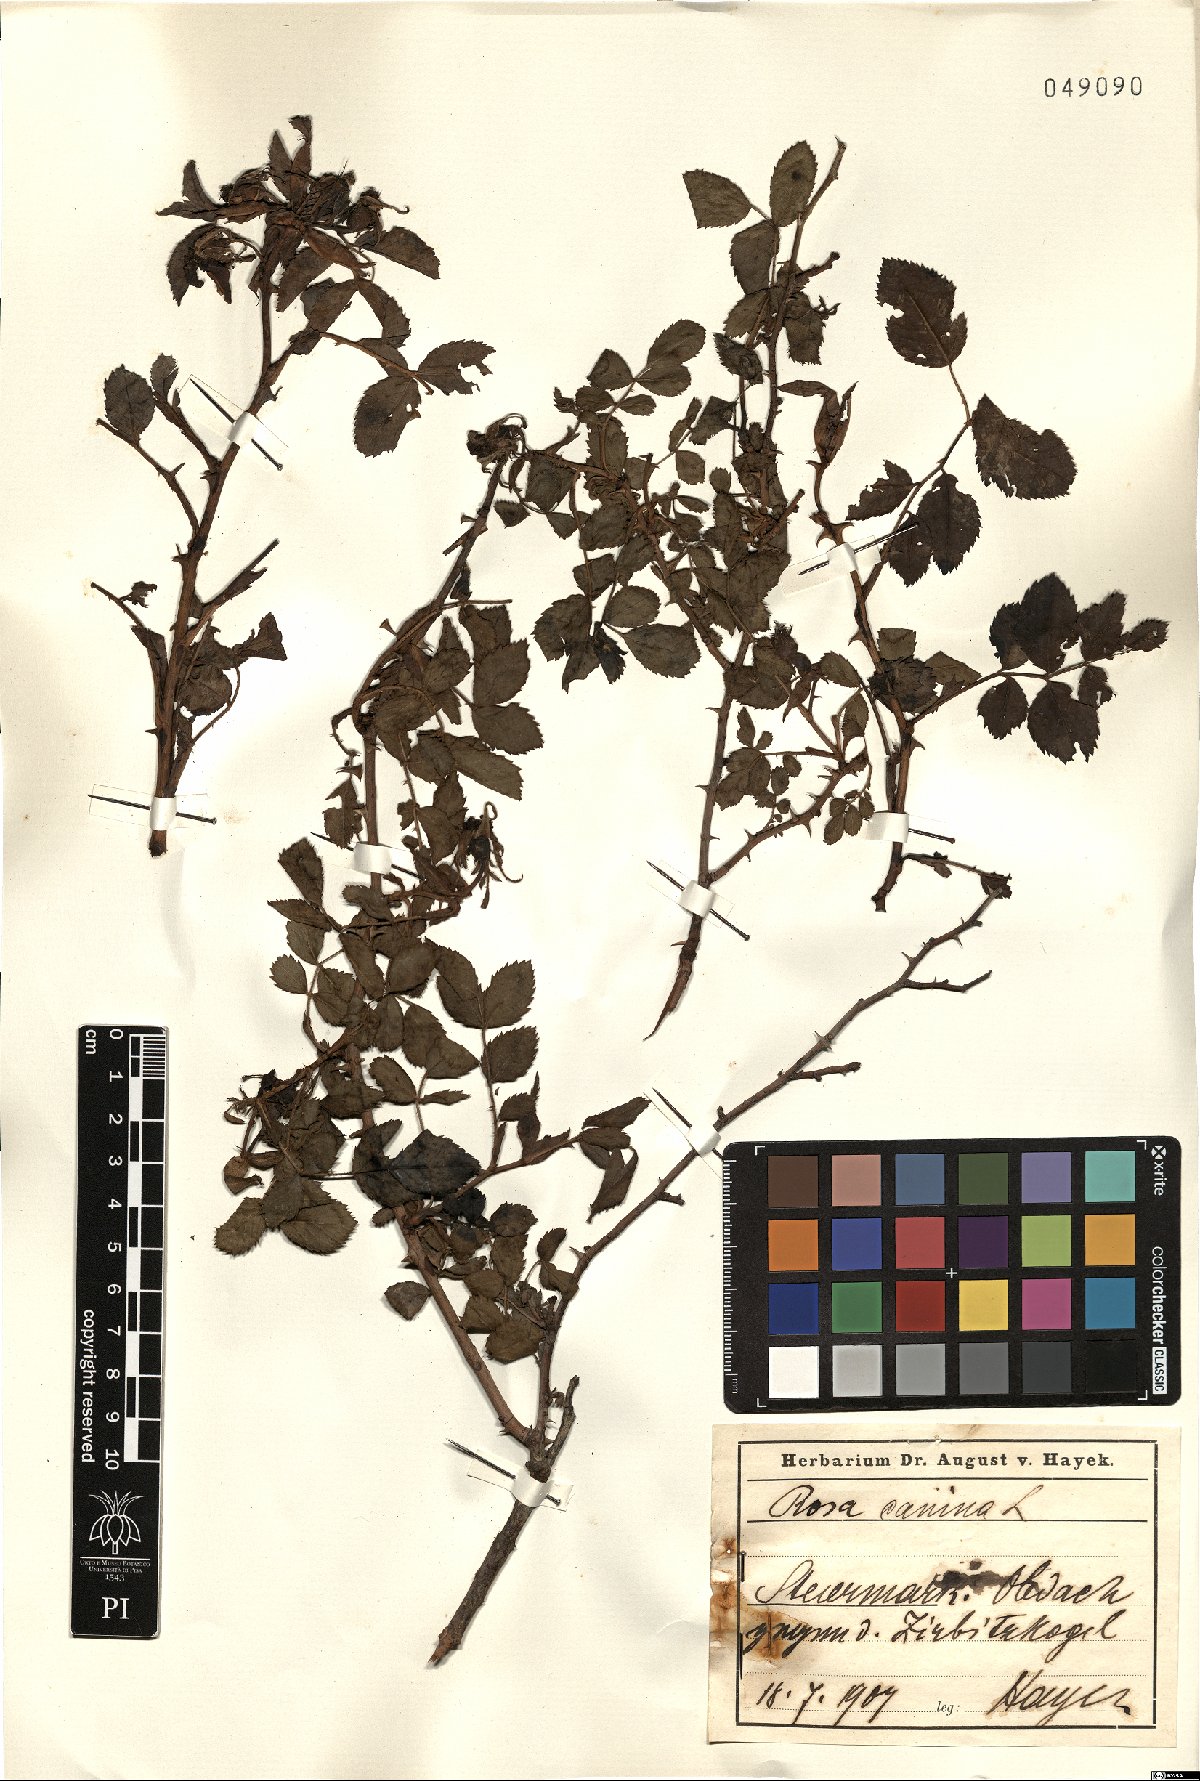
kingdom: Plantae
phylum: Tracheophyta
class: Magnoliopsida
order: Rosales
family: Rosaceae
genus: Rosa
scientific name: Rosa canina
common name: Dog rose
